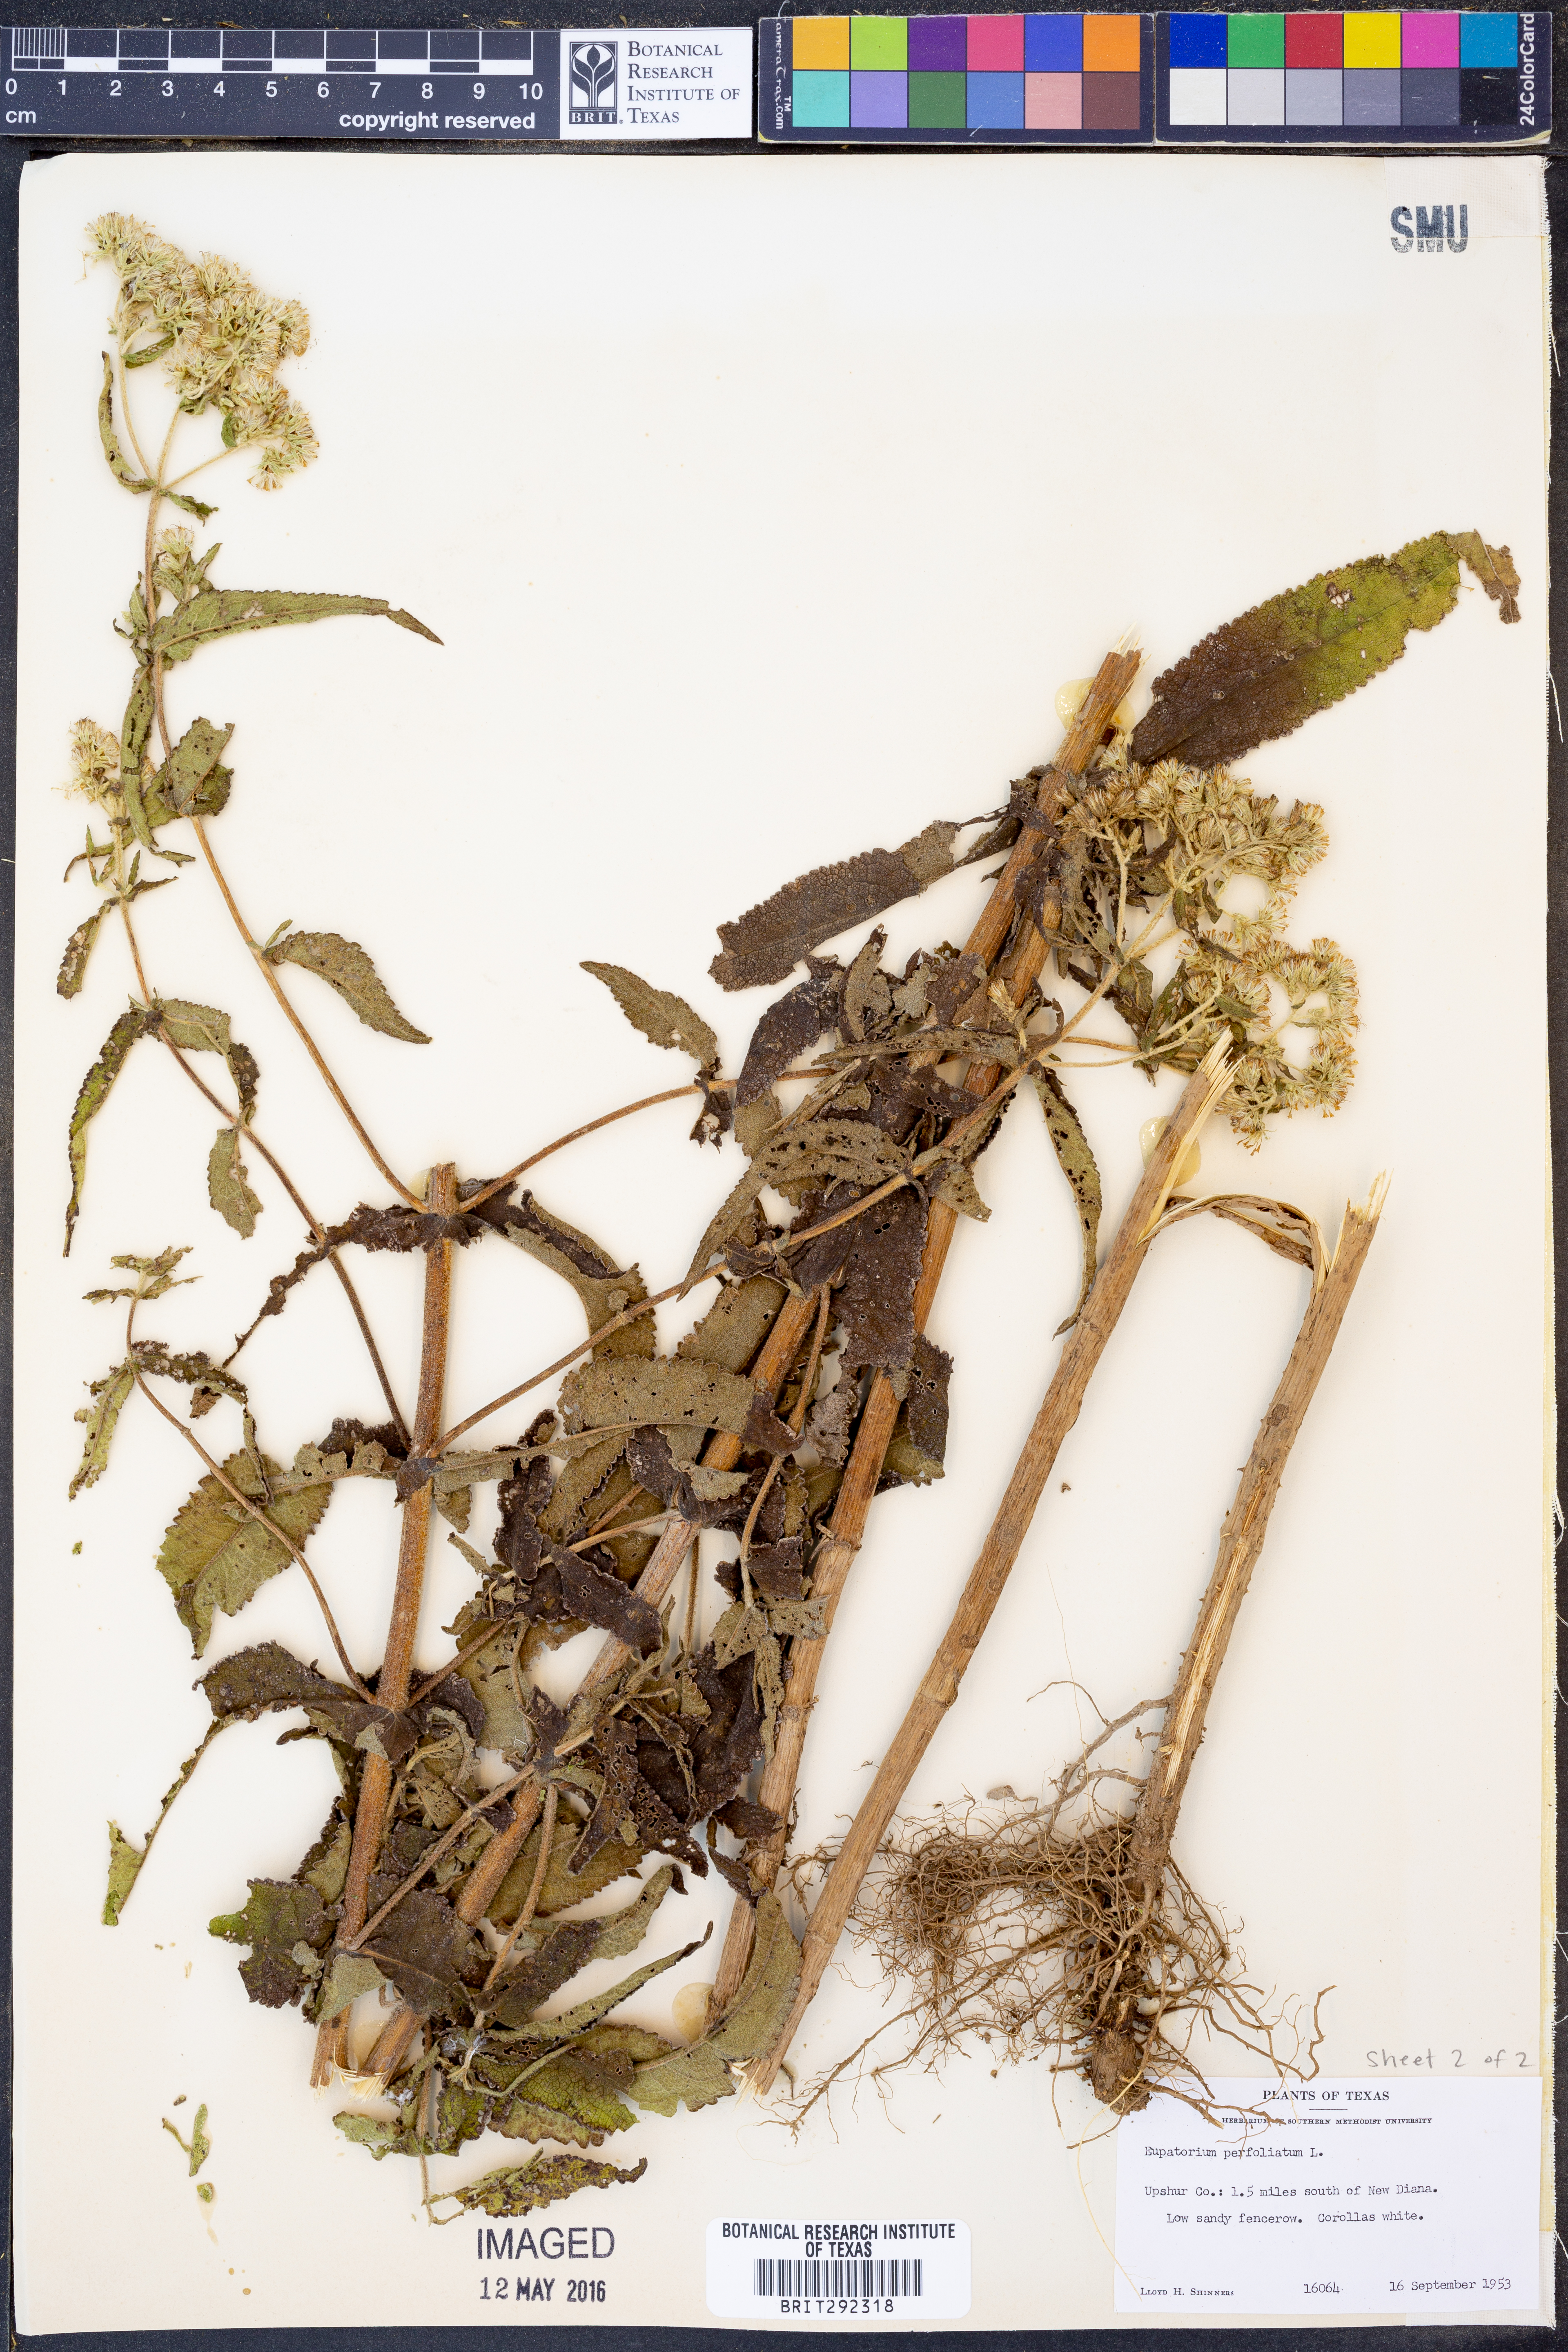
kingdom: Plantae
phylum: Tracheophyta
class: Magnoliopsida
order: Asterales
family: Asteraceae
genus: Eupatorium
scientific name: Eupatorium perfoliatum
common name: Boneset
